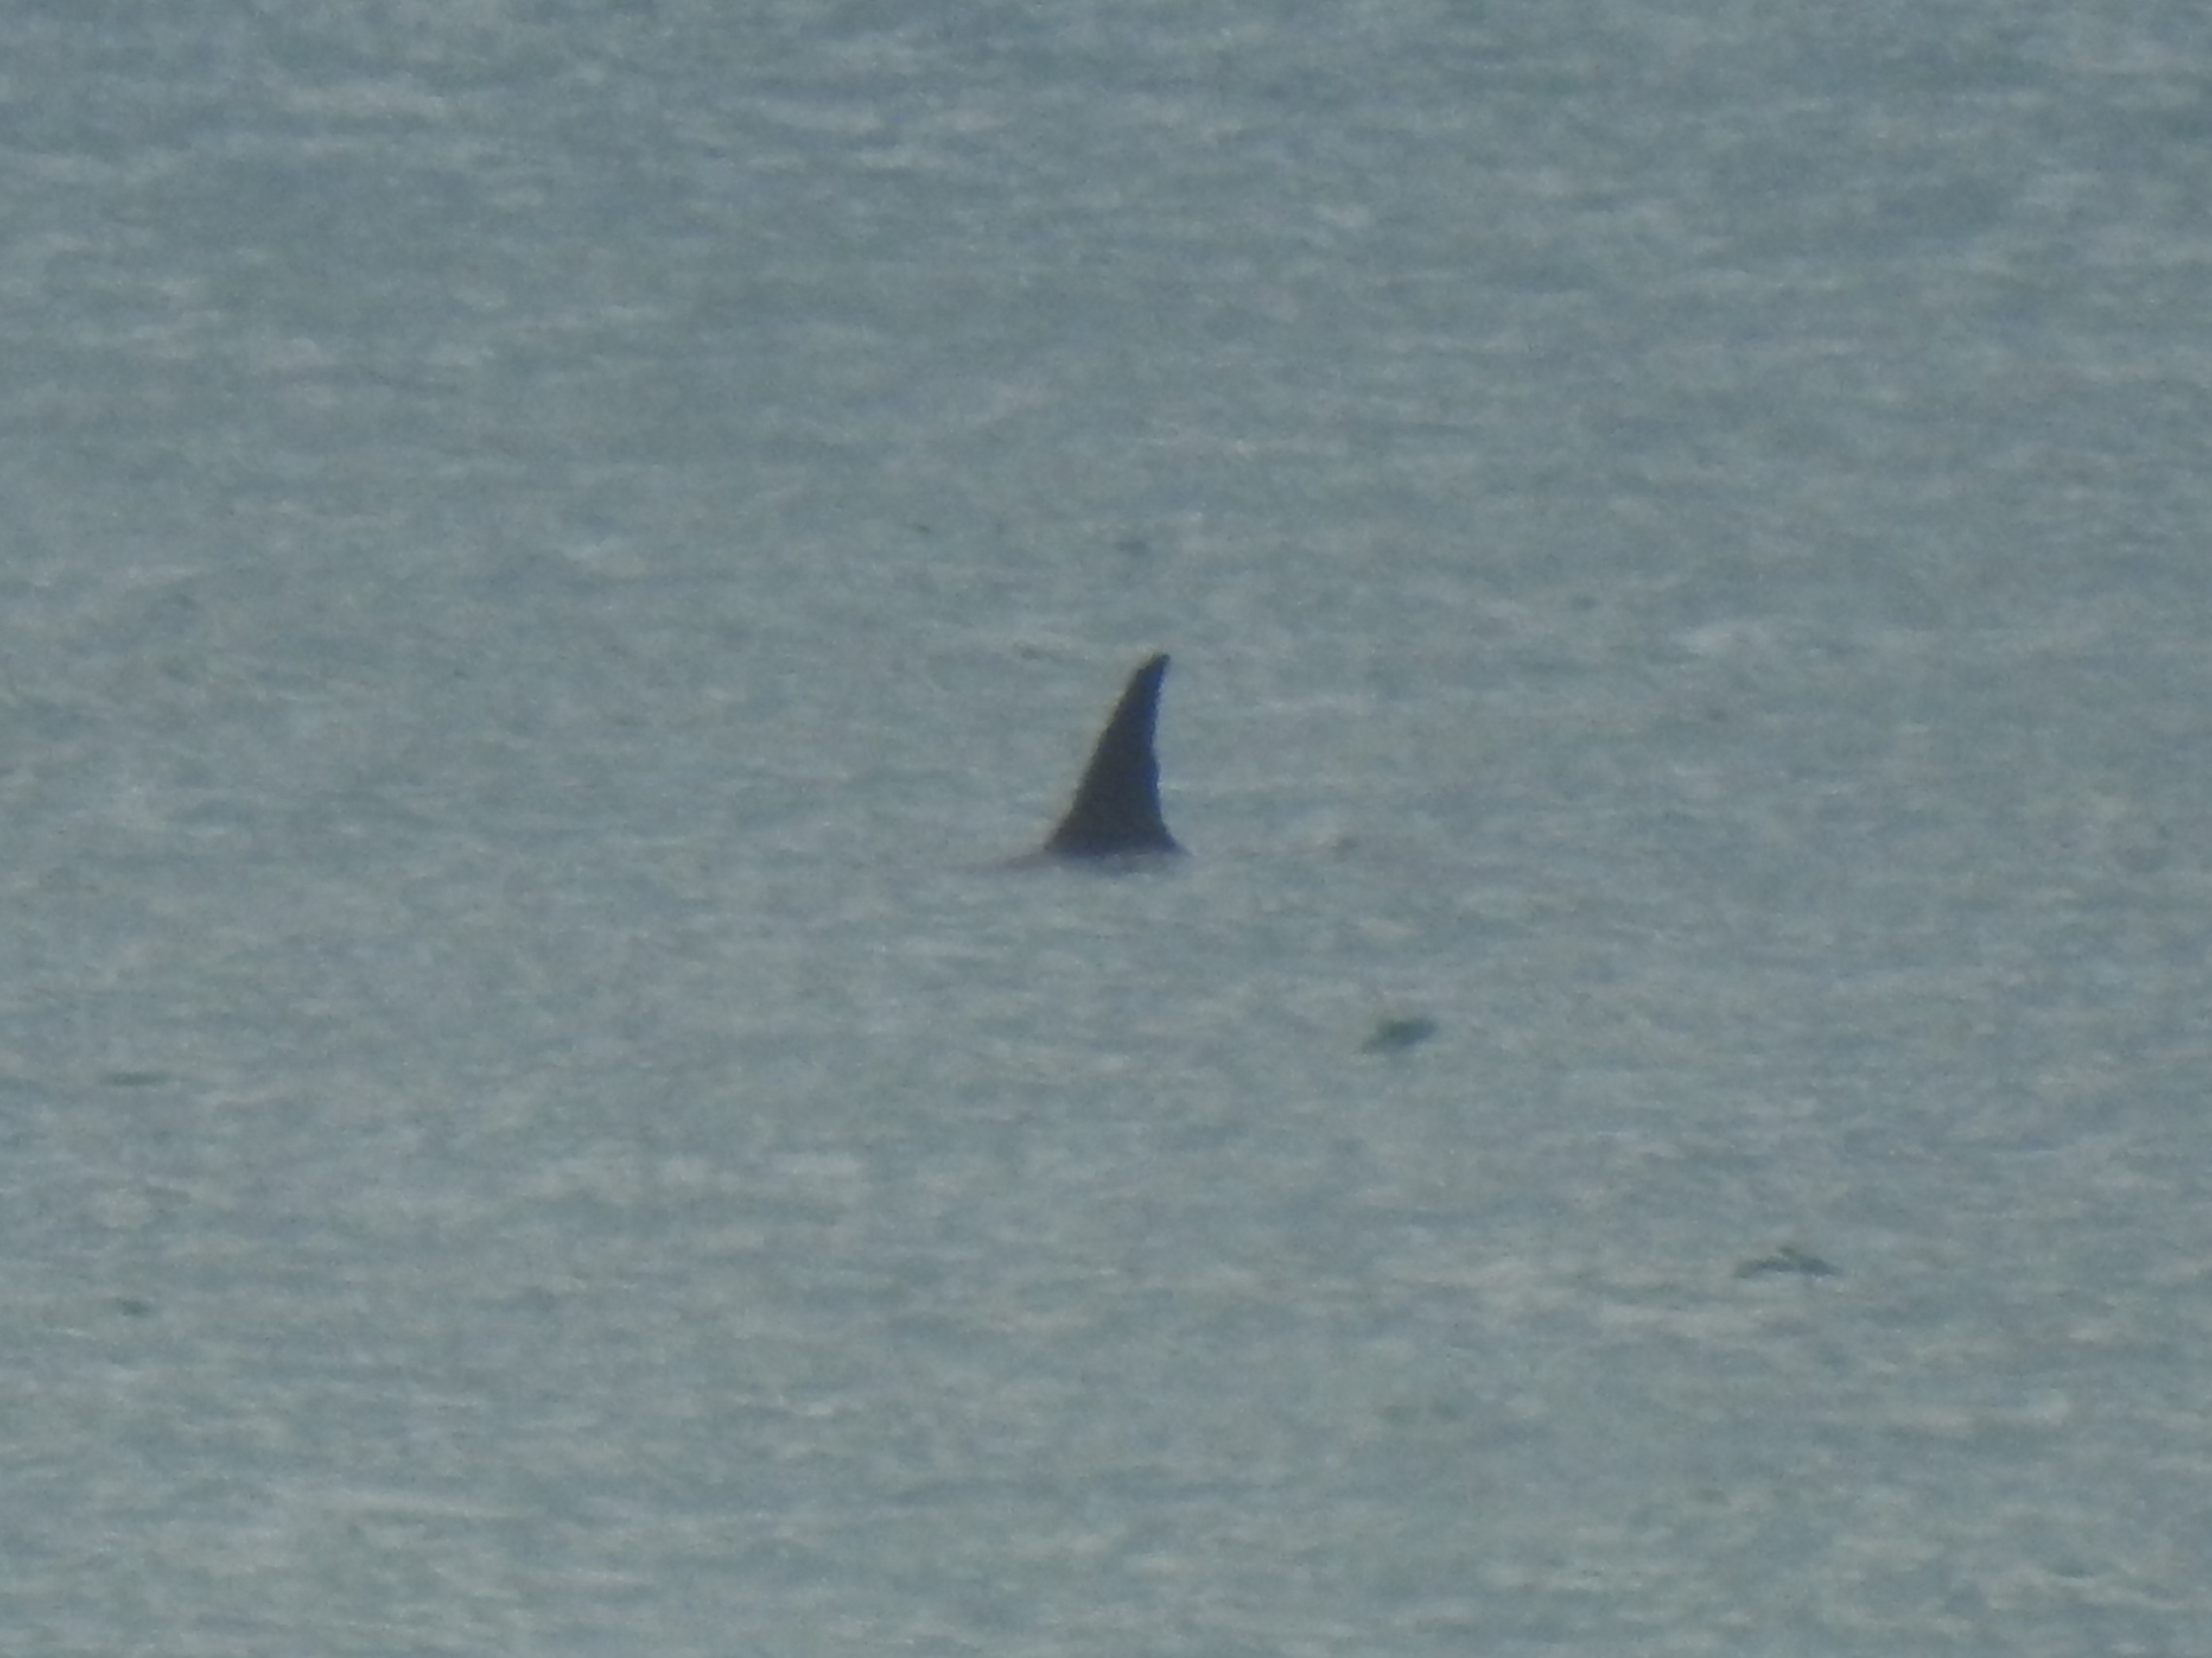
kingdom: Animalia
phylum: Chordata
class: Mammalia
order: Cetacea
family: Delphinidae
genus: Orcinus
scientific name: Orcinus orca
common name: Spækhugger
